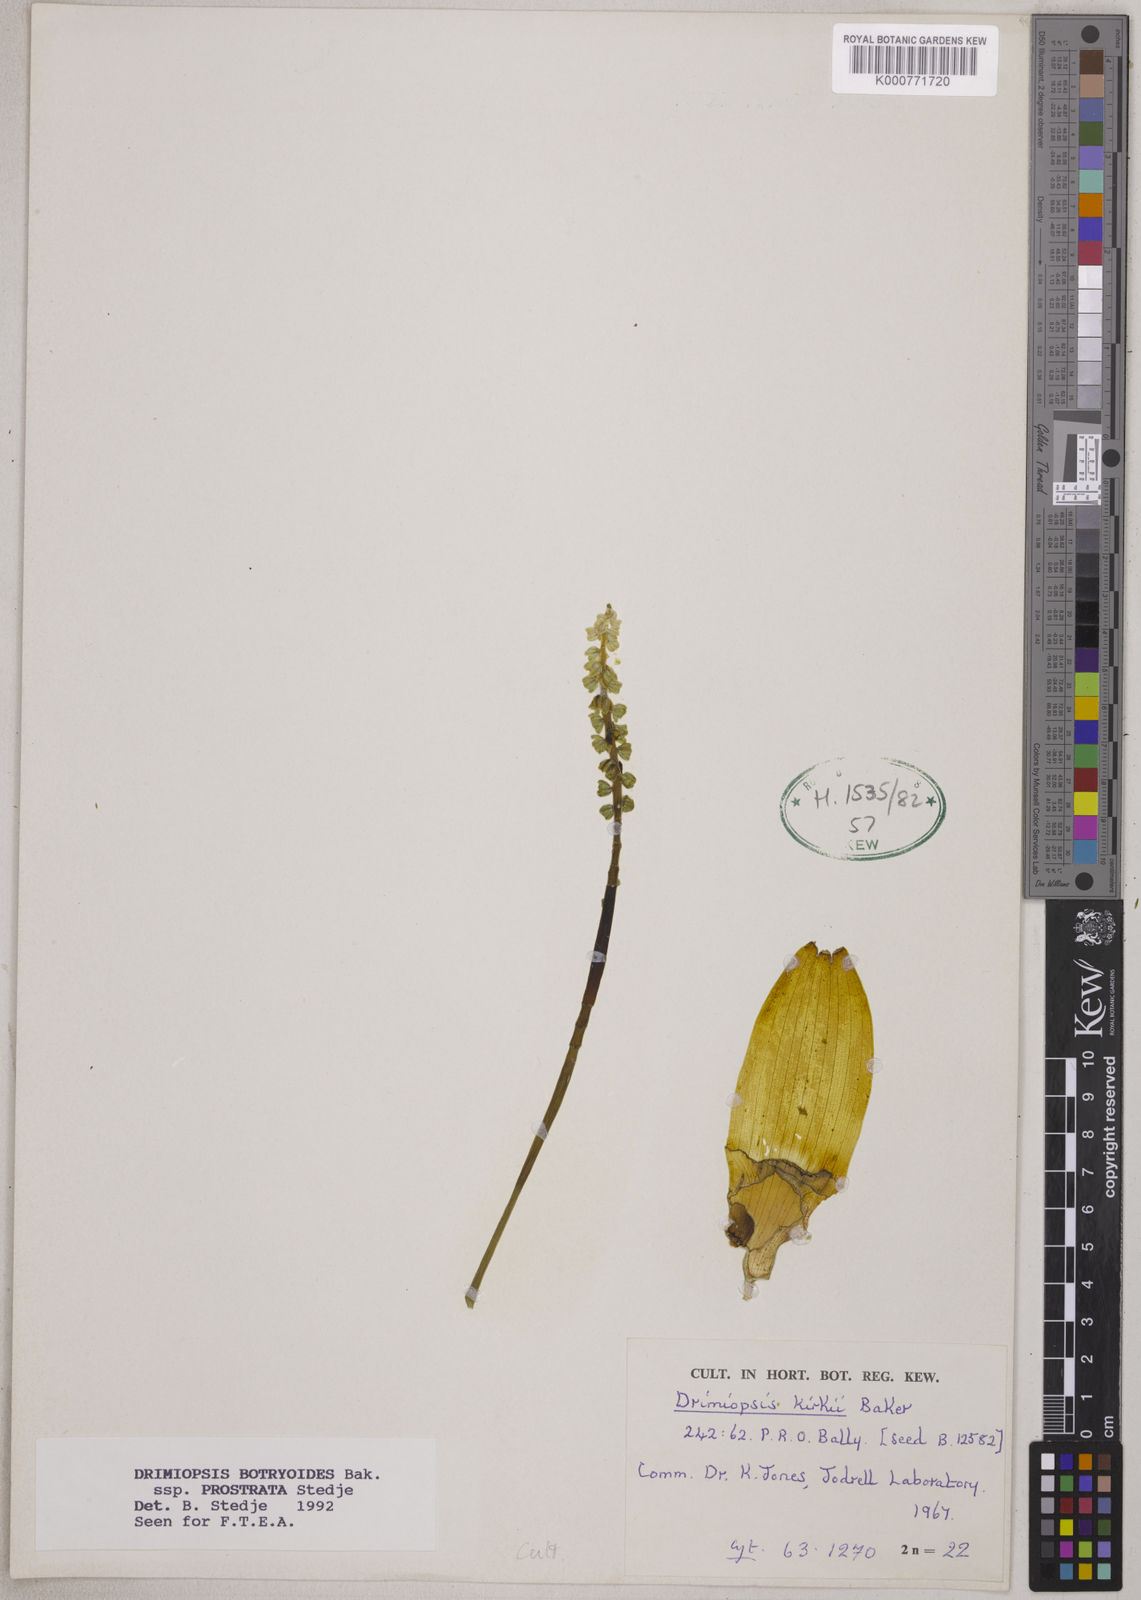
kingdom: Plantae
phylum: Tracheophyta
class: Liliopsida
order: Asparagales
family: Asparagaceae
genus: Drimiopsis
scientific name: Drimiopsis botryoides
